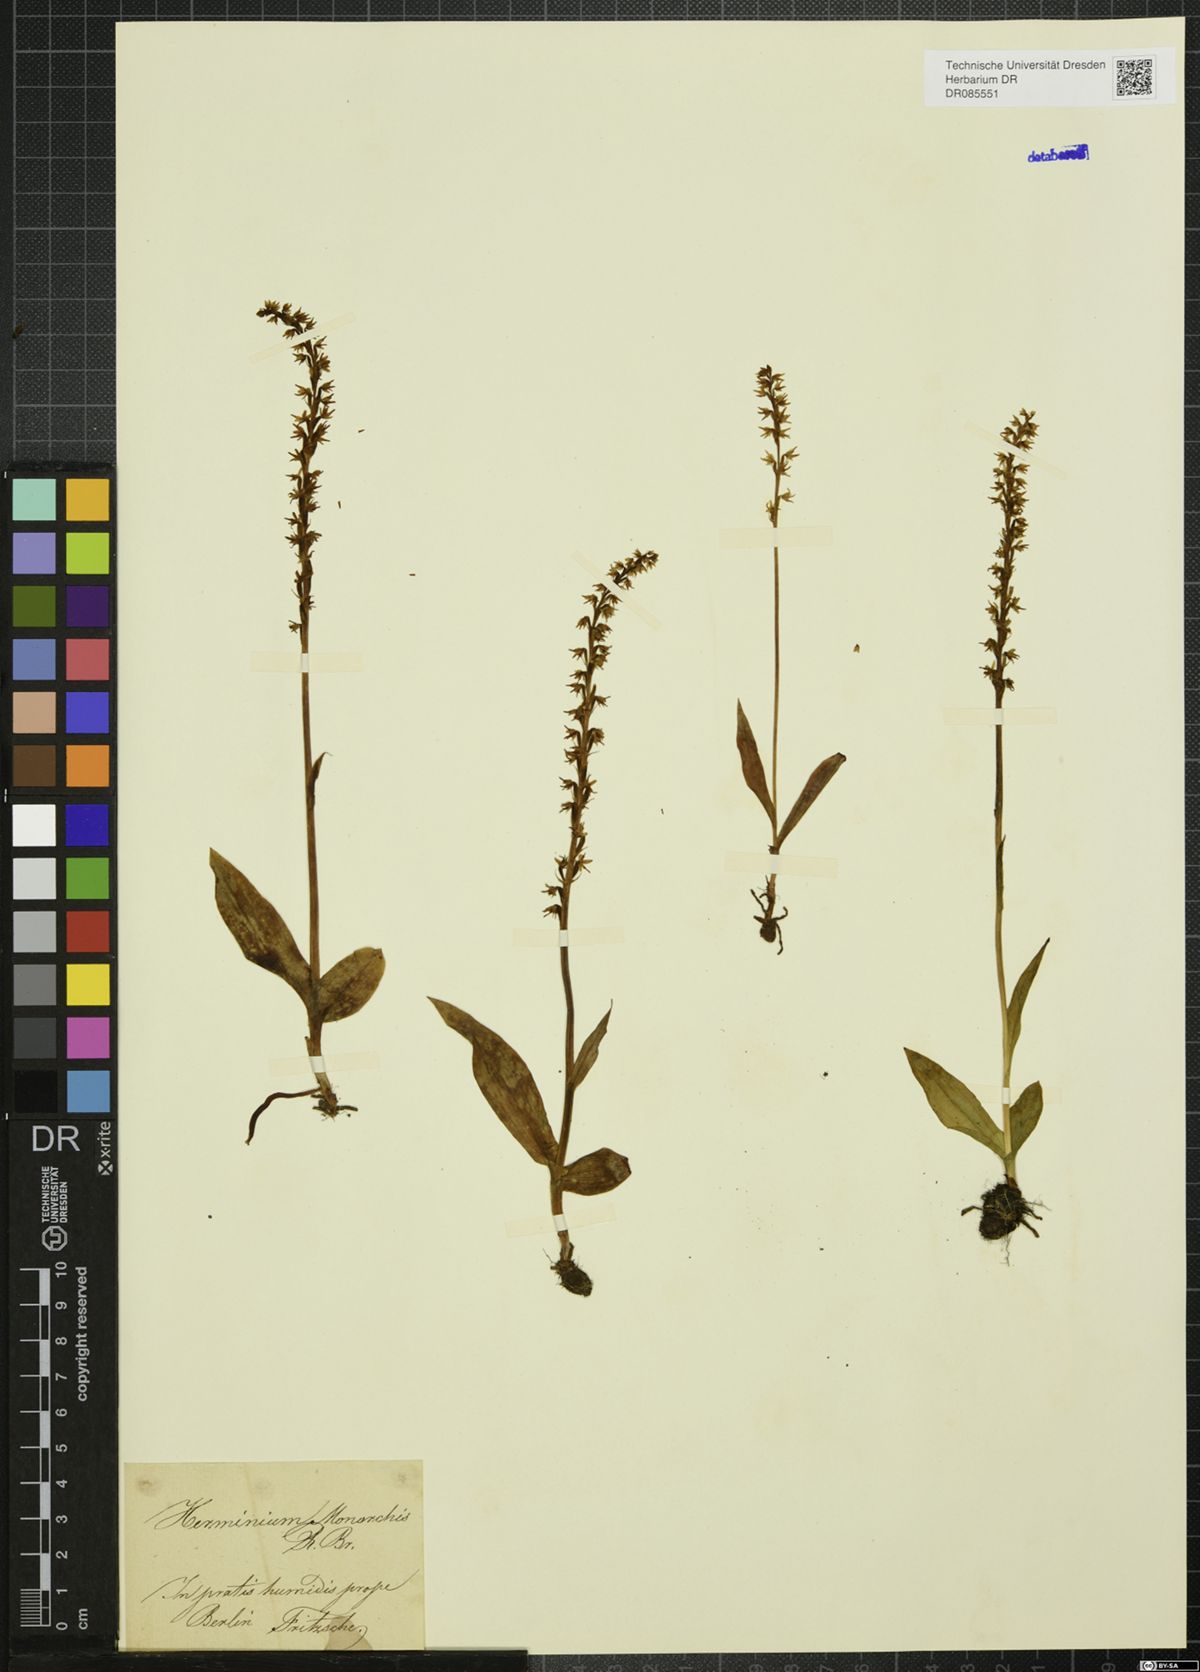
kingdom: Plantae
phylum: Tracheophyta
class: Liliopsida
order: Asparagales
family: Orchidaceae
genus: Herminium
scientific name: Herminium monorchis
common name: Musk orchid
